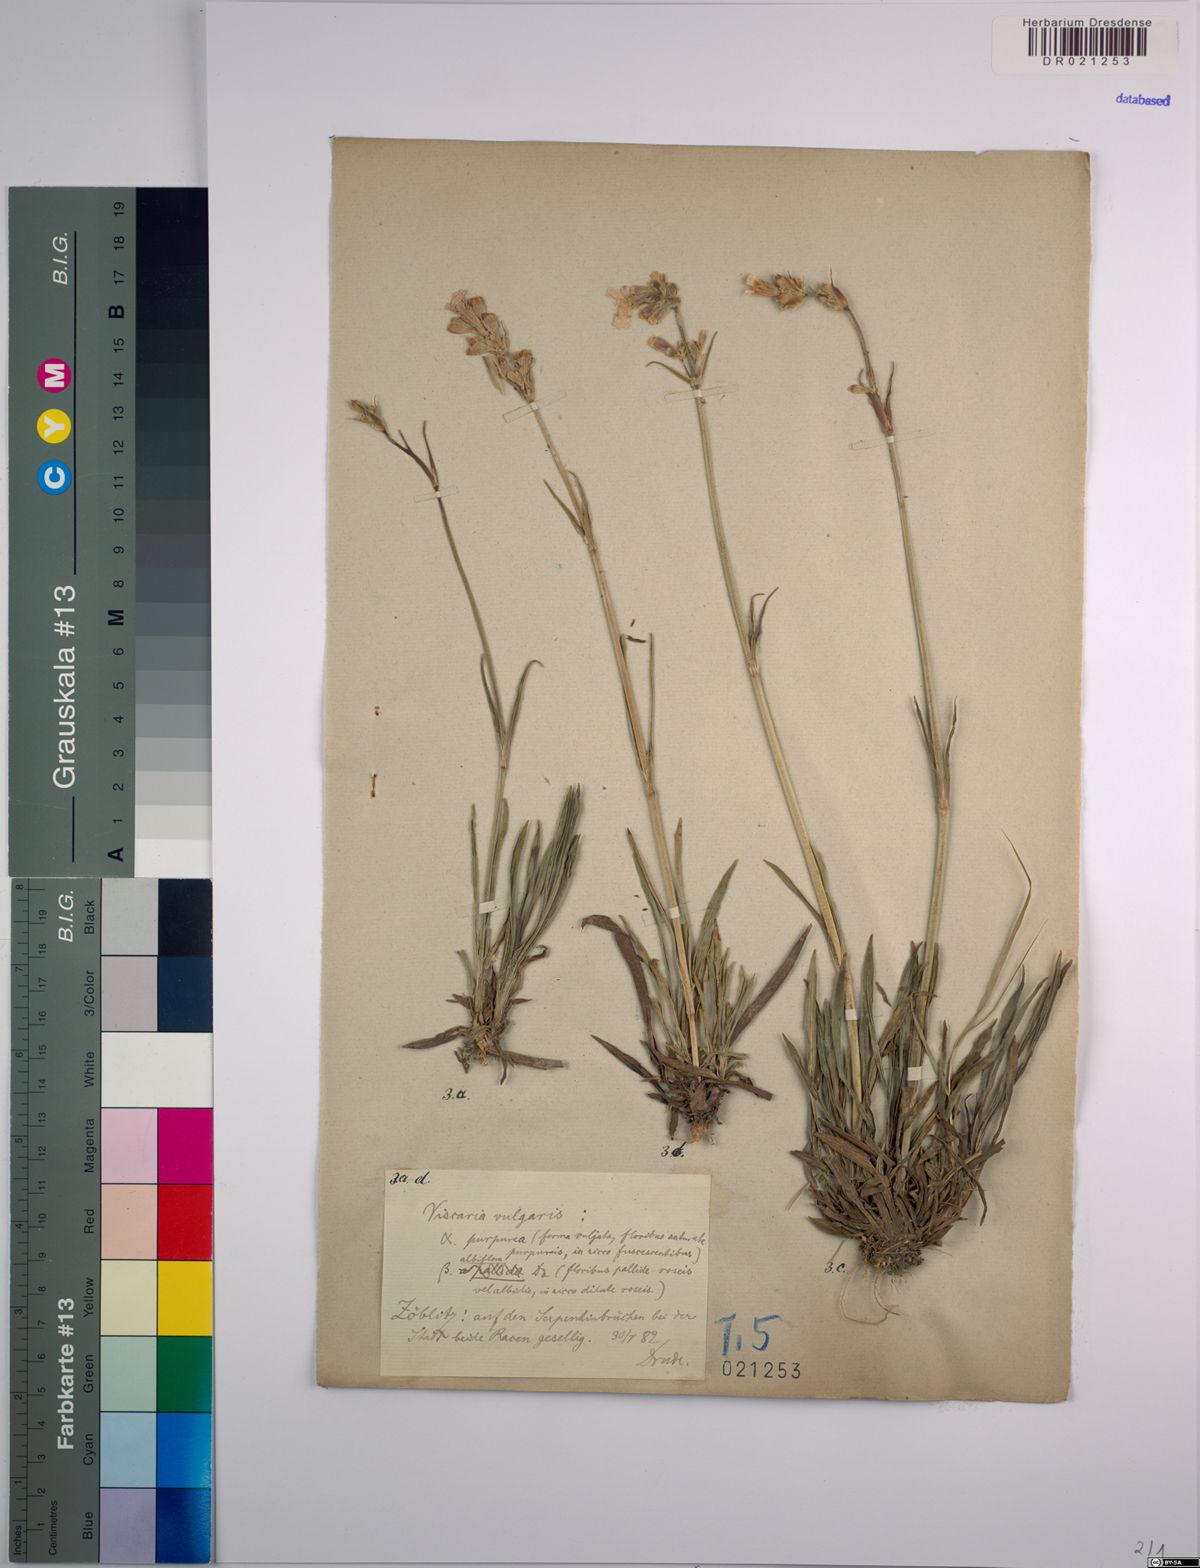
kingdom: Plantae
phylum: Tracheophyta
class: Magnoliopsida
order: Caryophyllales
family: Caryophyllaceae
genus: Viscaria
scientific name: Viscaria vulgaris
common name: Clammy campion
